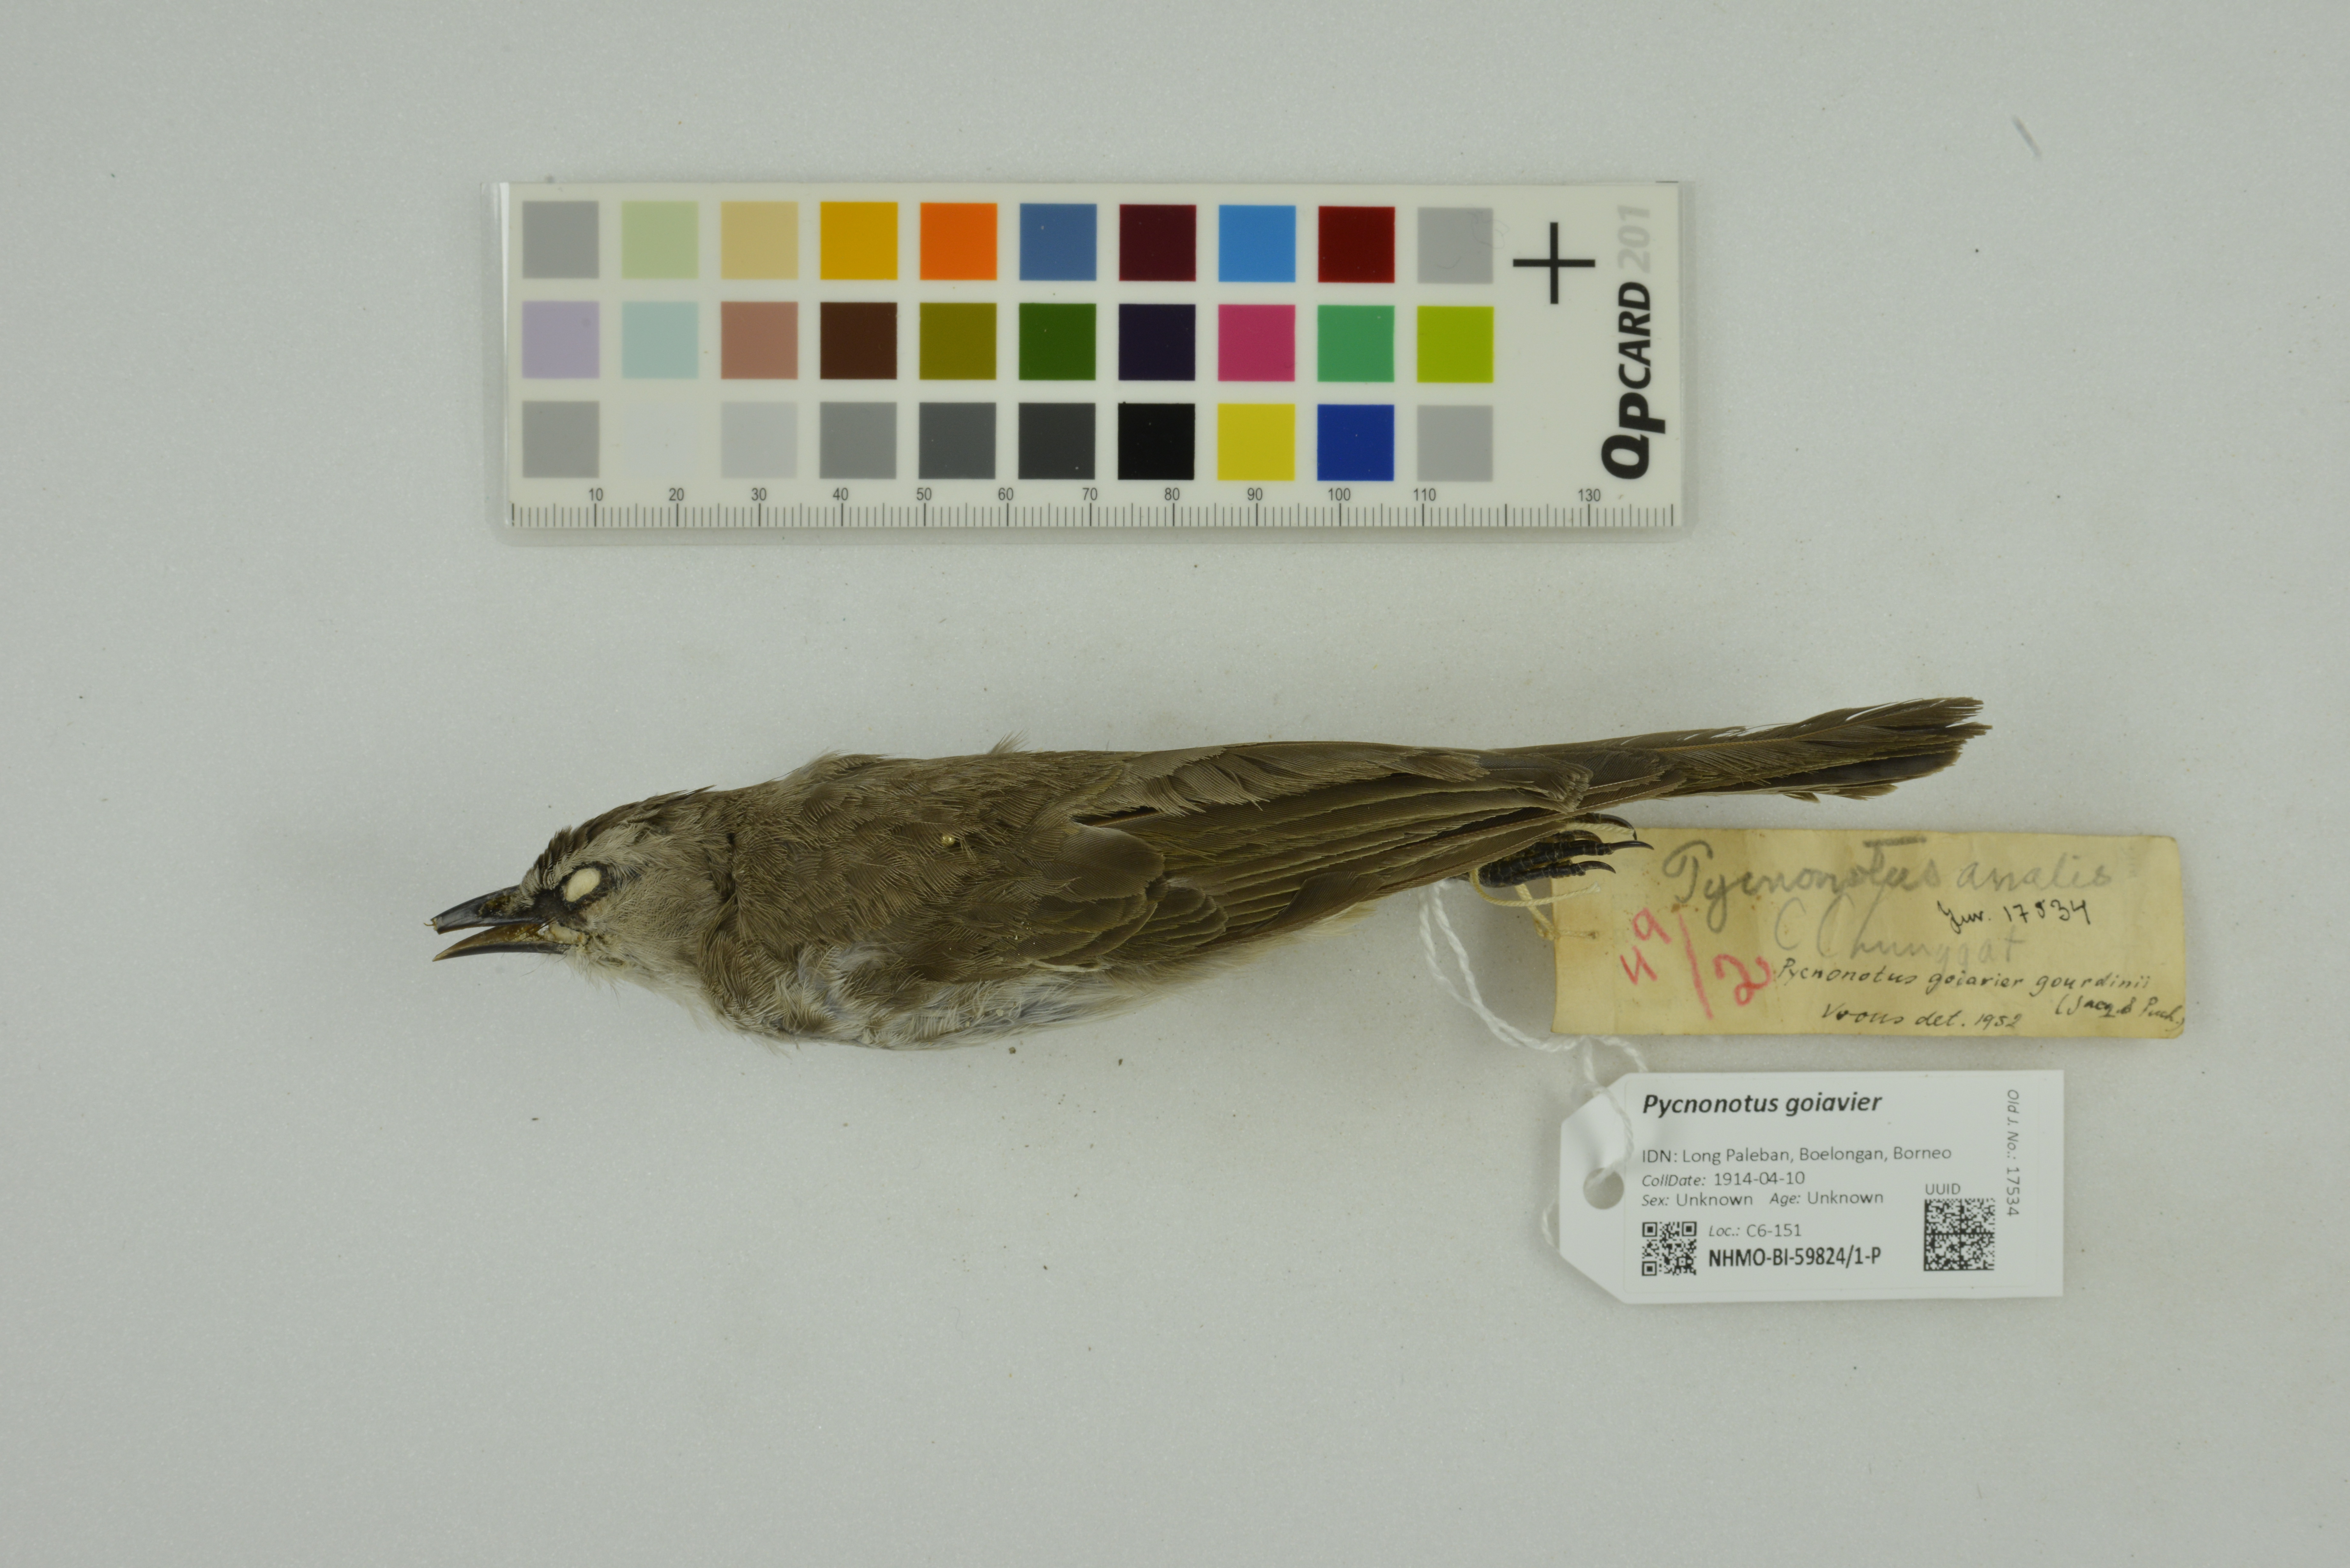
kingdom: Animalia
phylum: Chordata
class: Aves
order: Passeriformes
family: Pycnonotidae
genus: Pycnonotus
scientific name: Pycnonotus goiavier
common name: Yellow-vented bulbul
